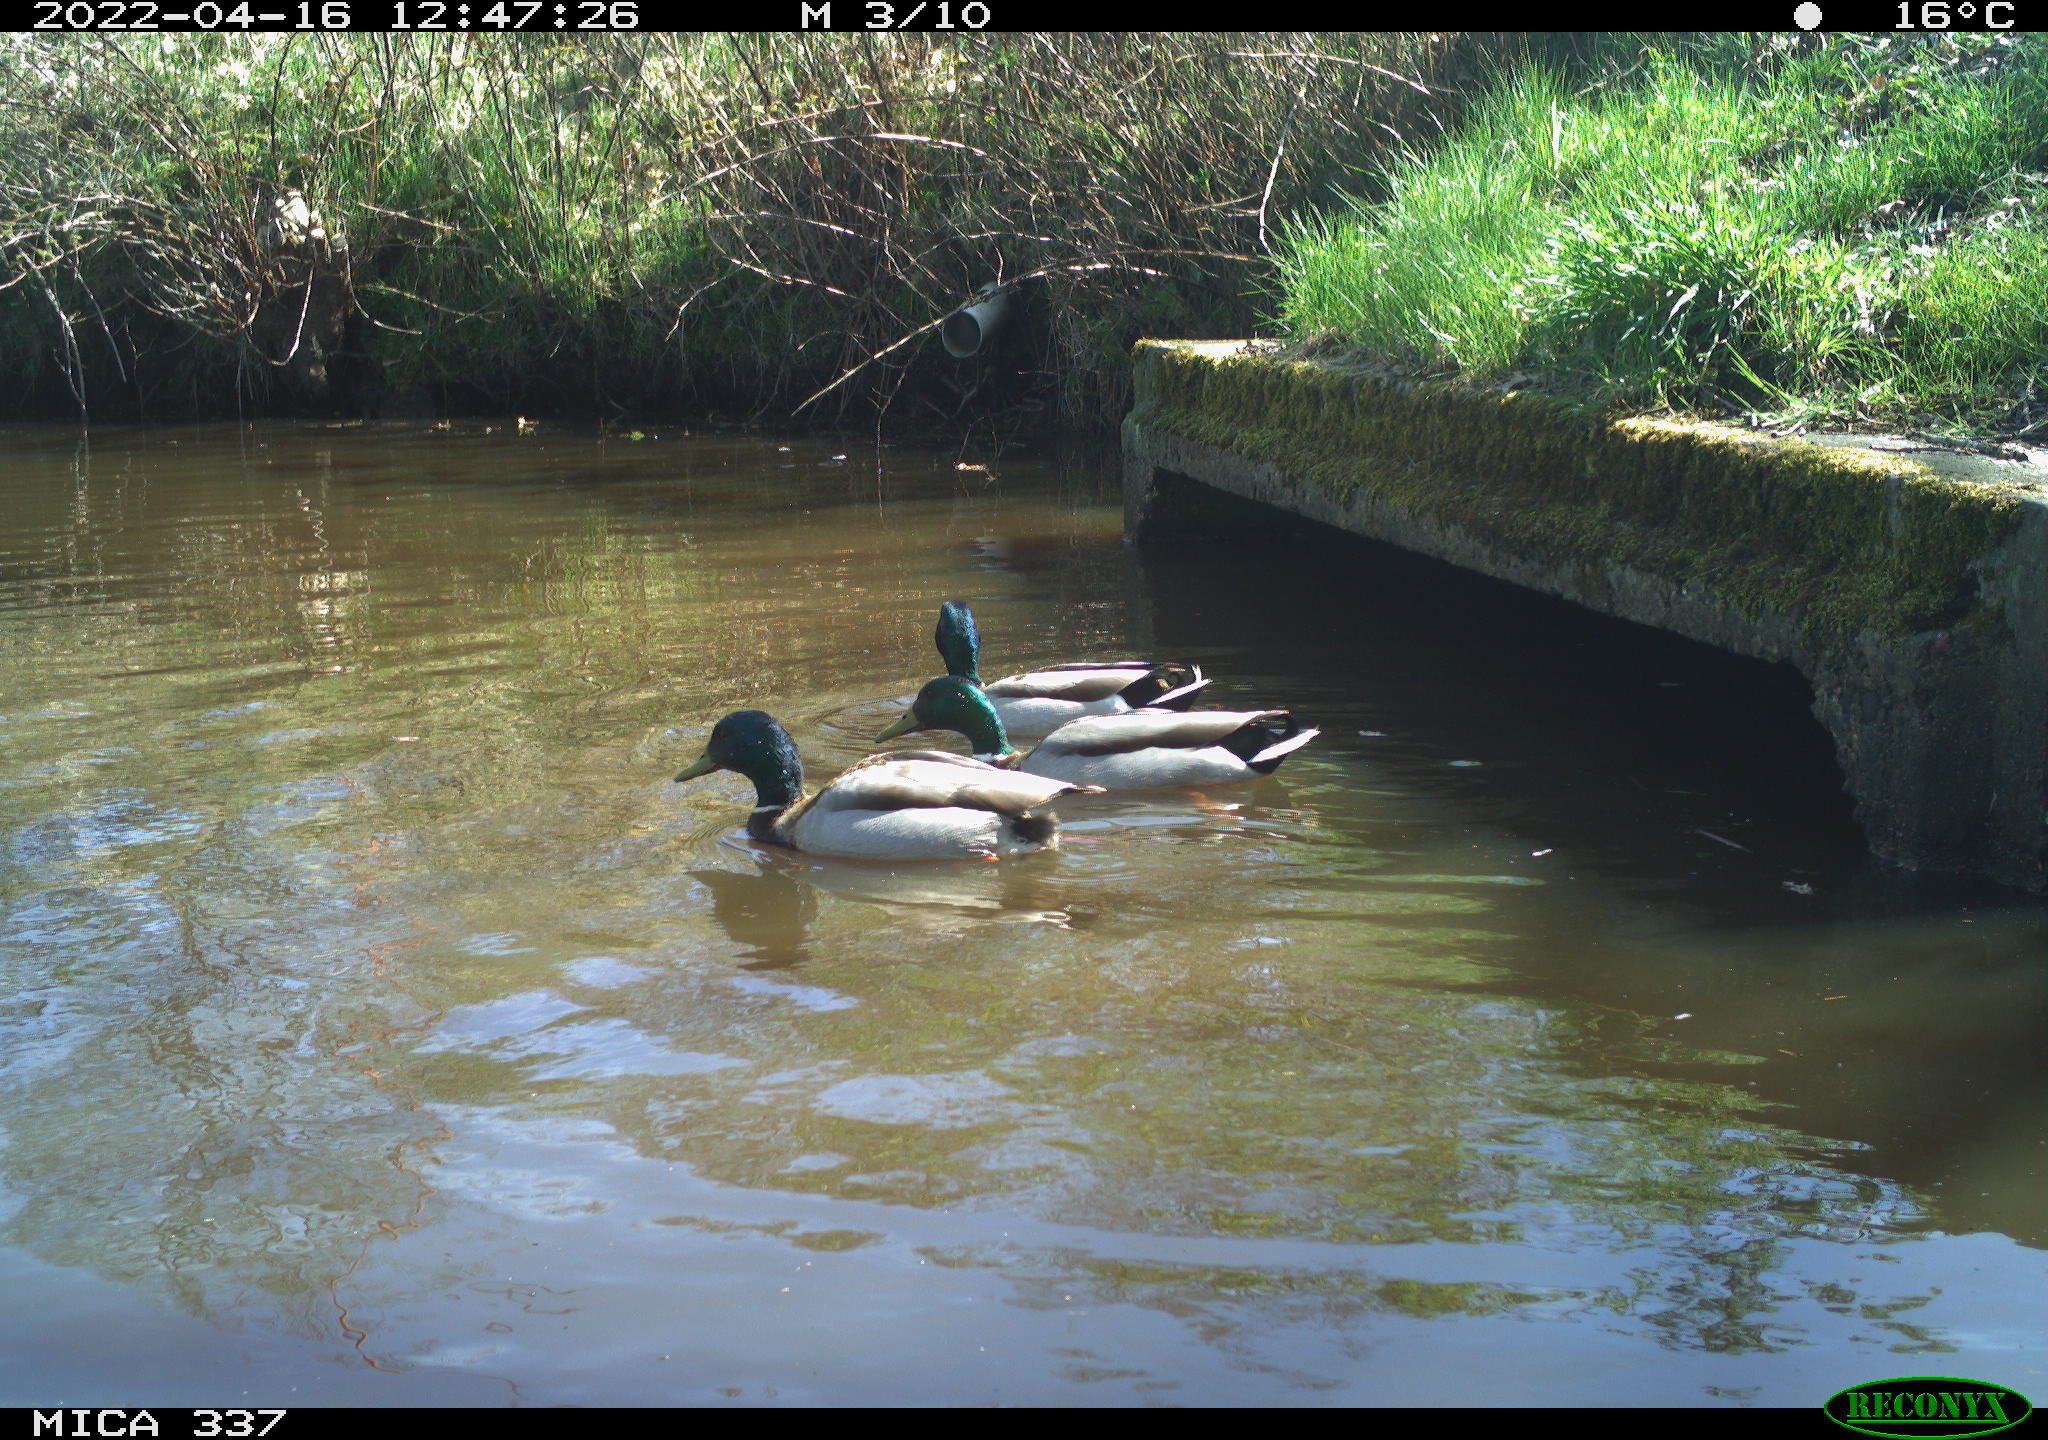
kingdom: Animalia
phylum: Chordata
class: Aves
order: Anseriformes
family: Anatidae
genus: Anas
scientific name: Anas platyrhynchos
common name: Mallard
